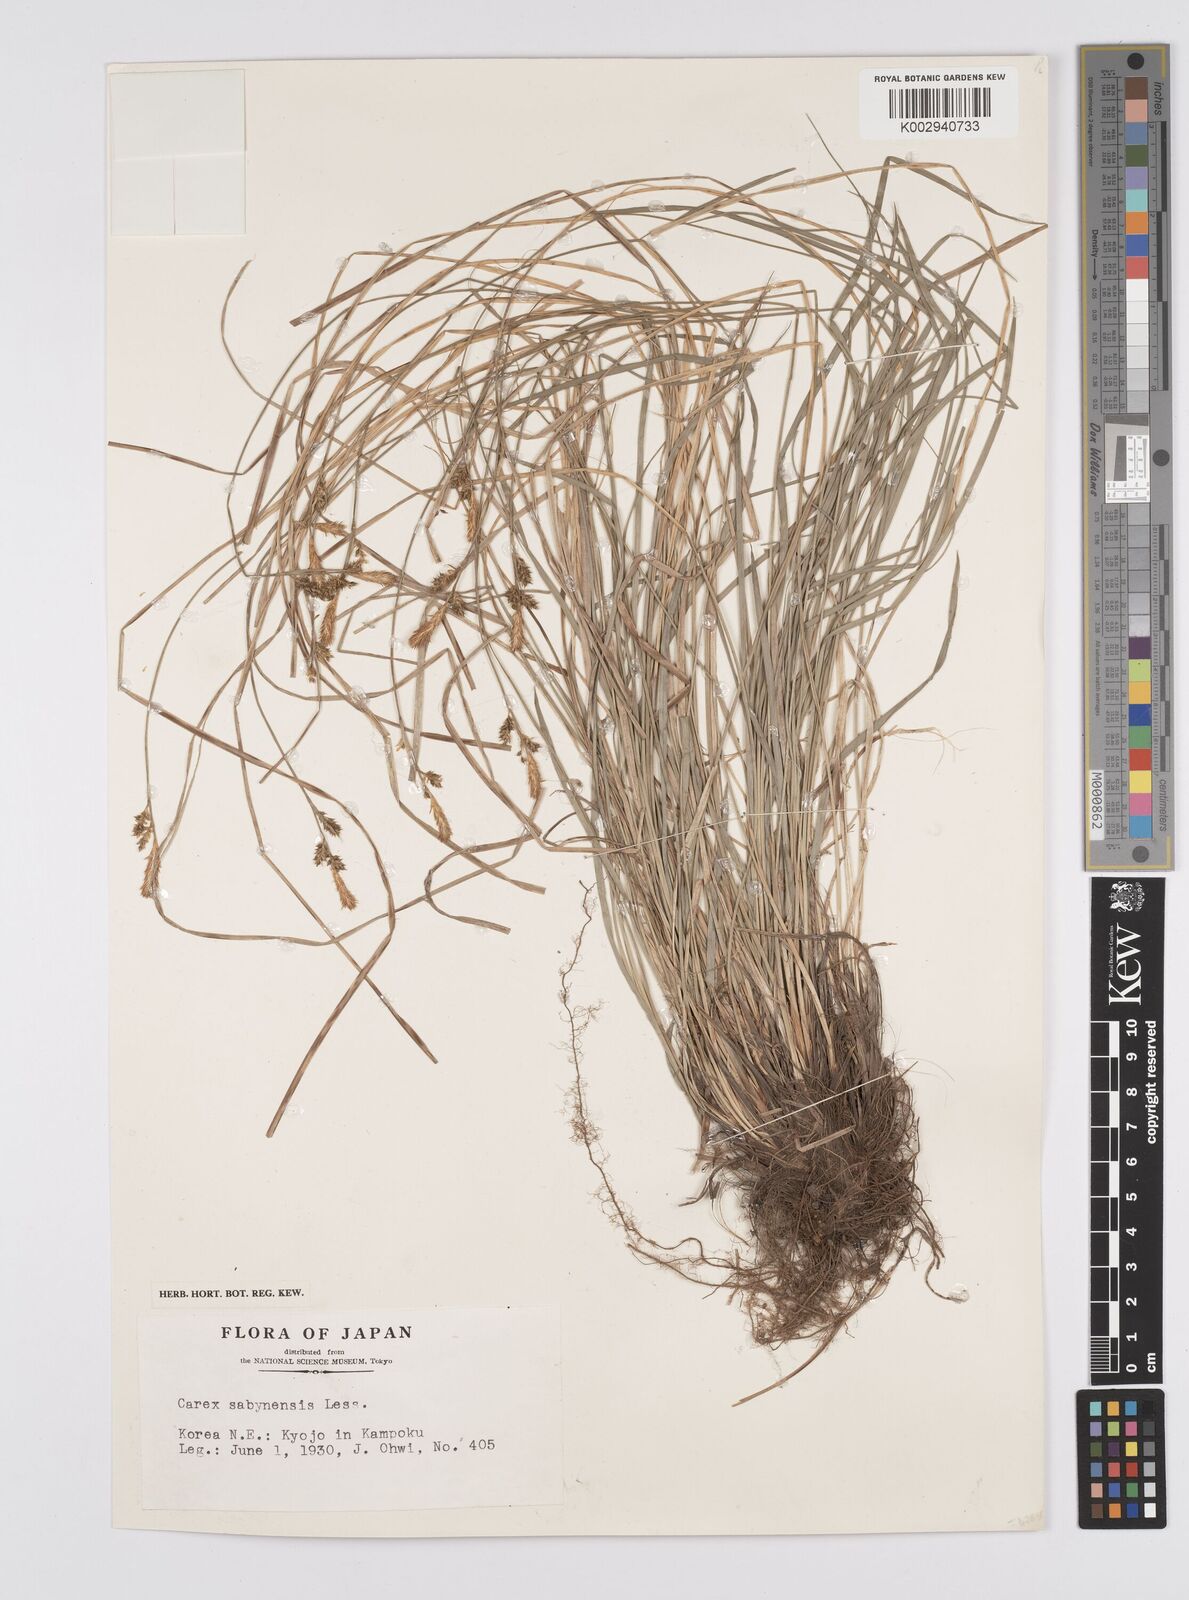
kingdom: Plantae
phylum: Tracheophyta
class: Liliopsida
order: Poales
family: Cyperaceae
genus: Carex
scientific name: Carex umbrosa
